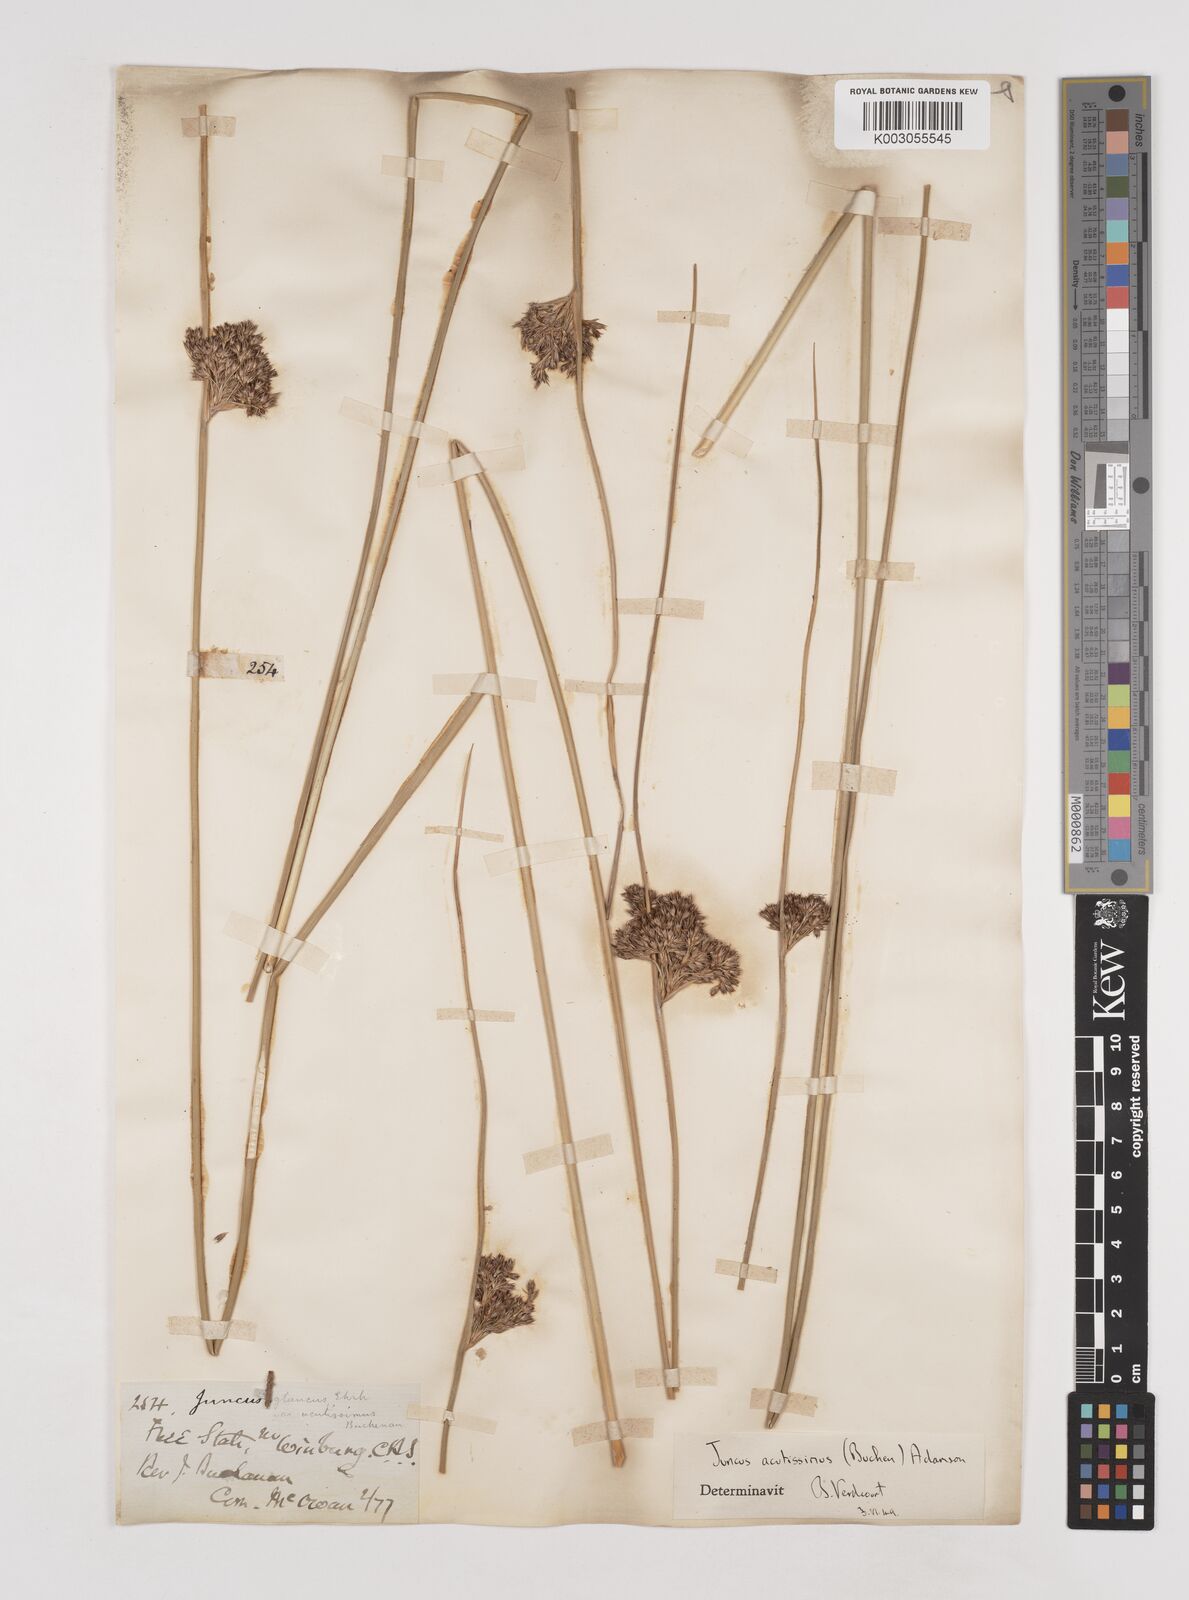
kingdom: Plantae
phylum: Tracheophyta
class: Liliopsida
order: Poales
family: Juncaceae
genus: Juncus
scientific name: Juncus inflexus
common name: Hard rush
